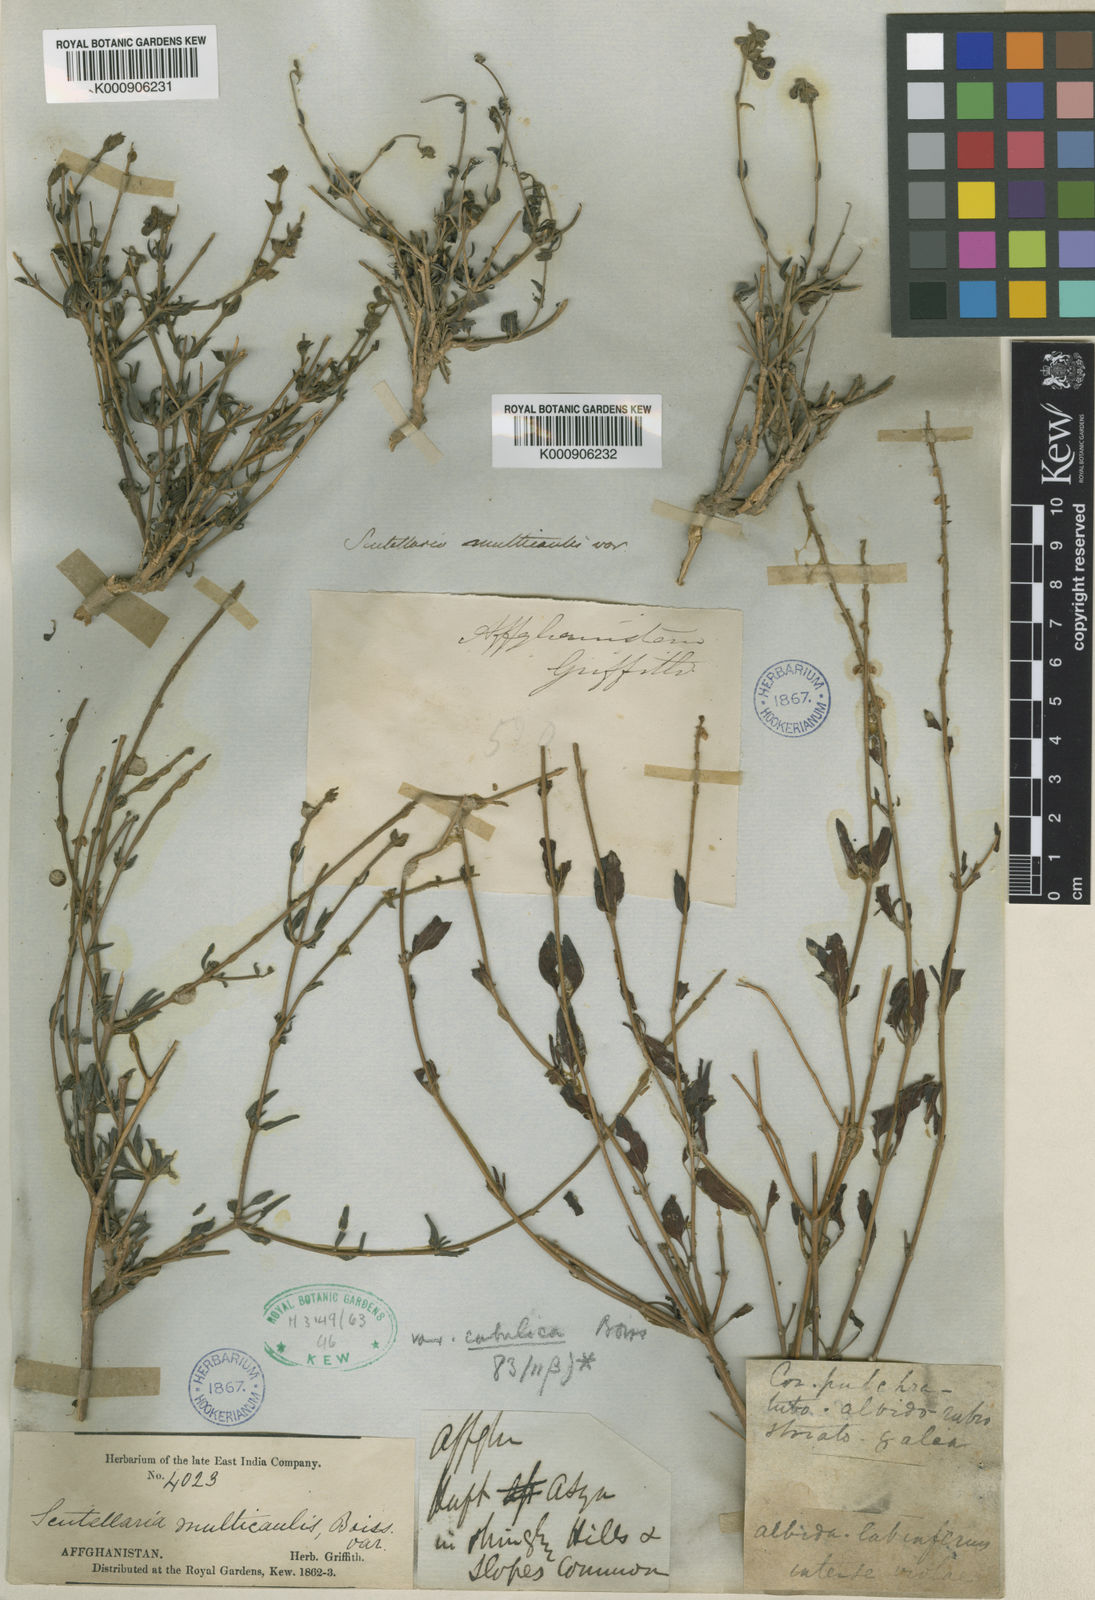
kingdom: Plantae
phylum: Tracheophyta
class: Magnoliopsida
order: Lamiales
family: Lamiaceae
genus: Scutellaria
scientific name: Scutellaria multicaulis
